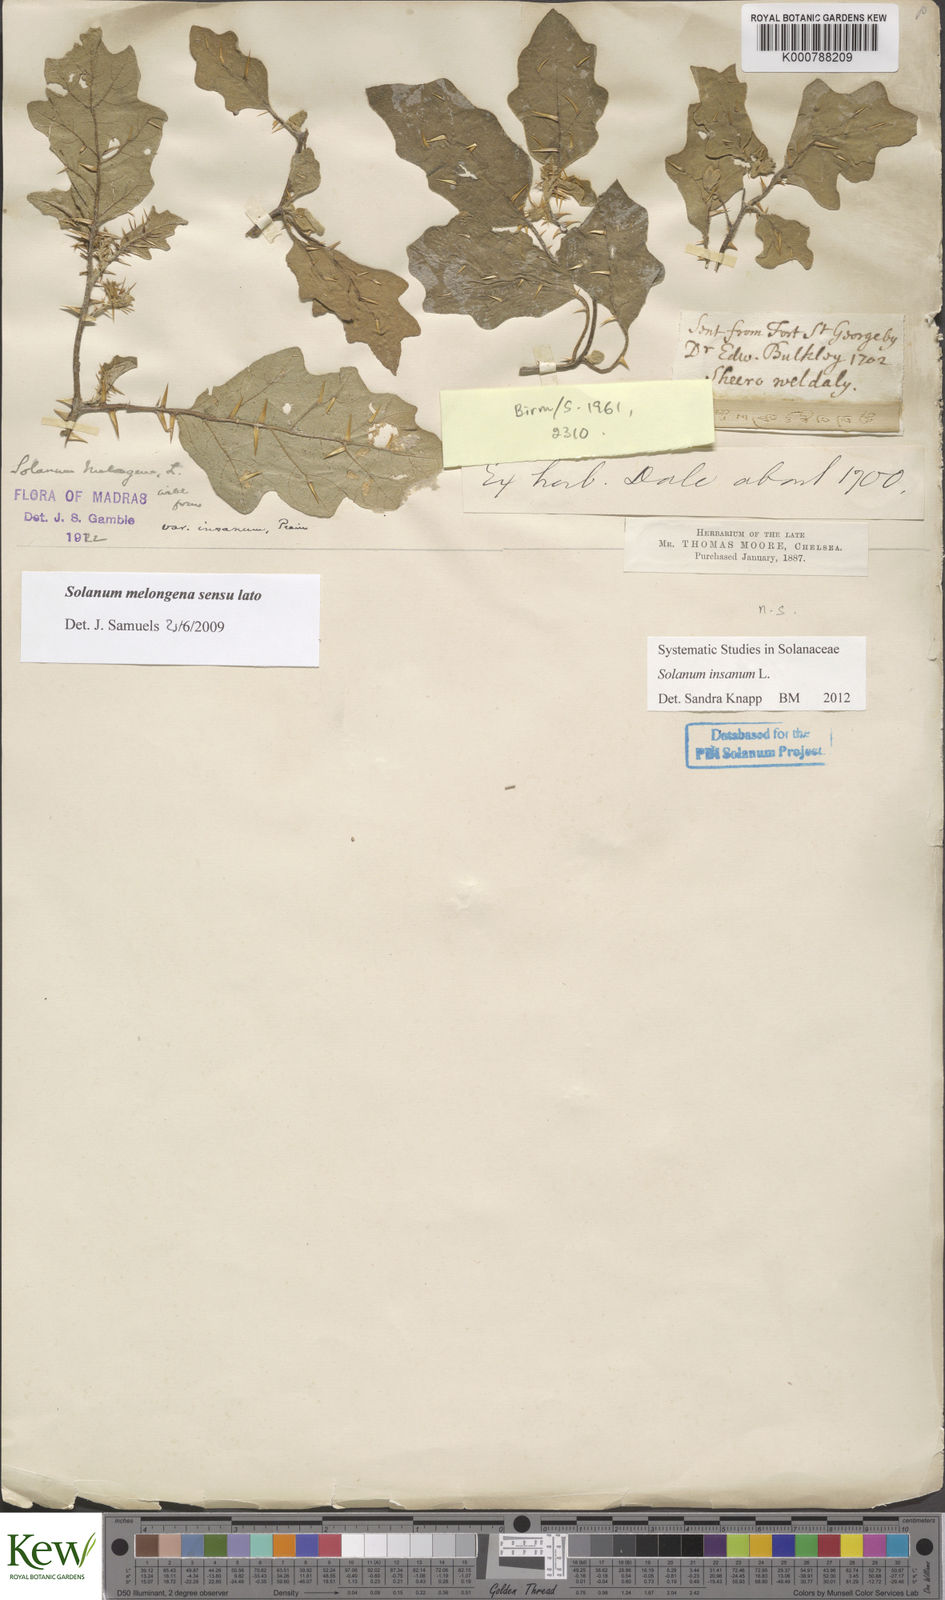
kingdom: Plantae
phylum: Tracheophyta
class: Magnoliopsida
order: Solanales
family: Solanaceae
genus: Solanum
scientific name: Solanum insanum
